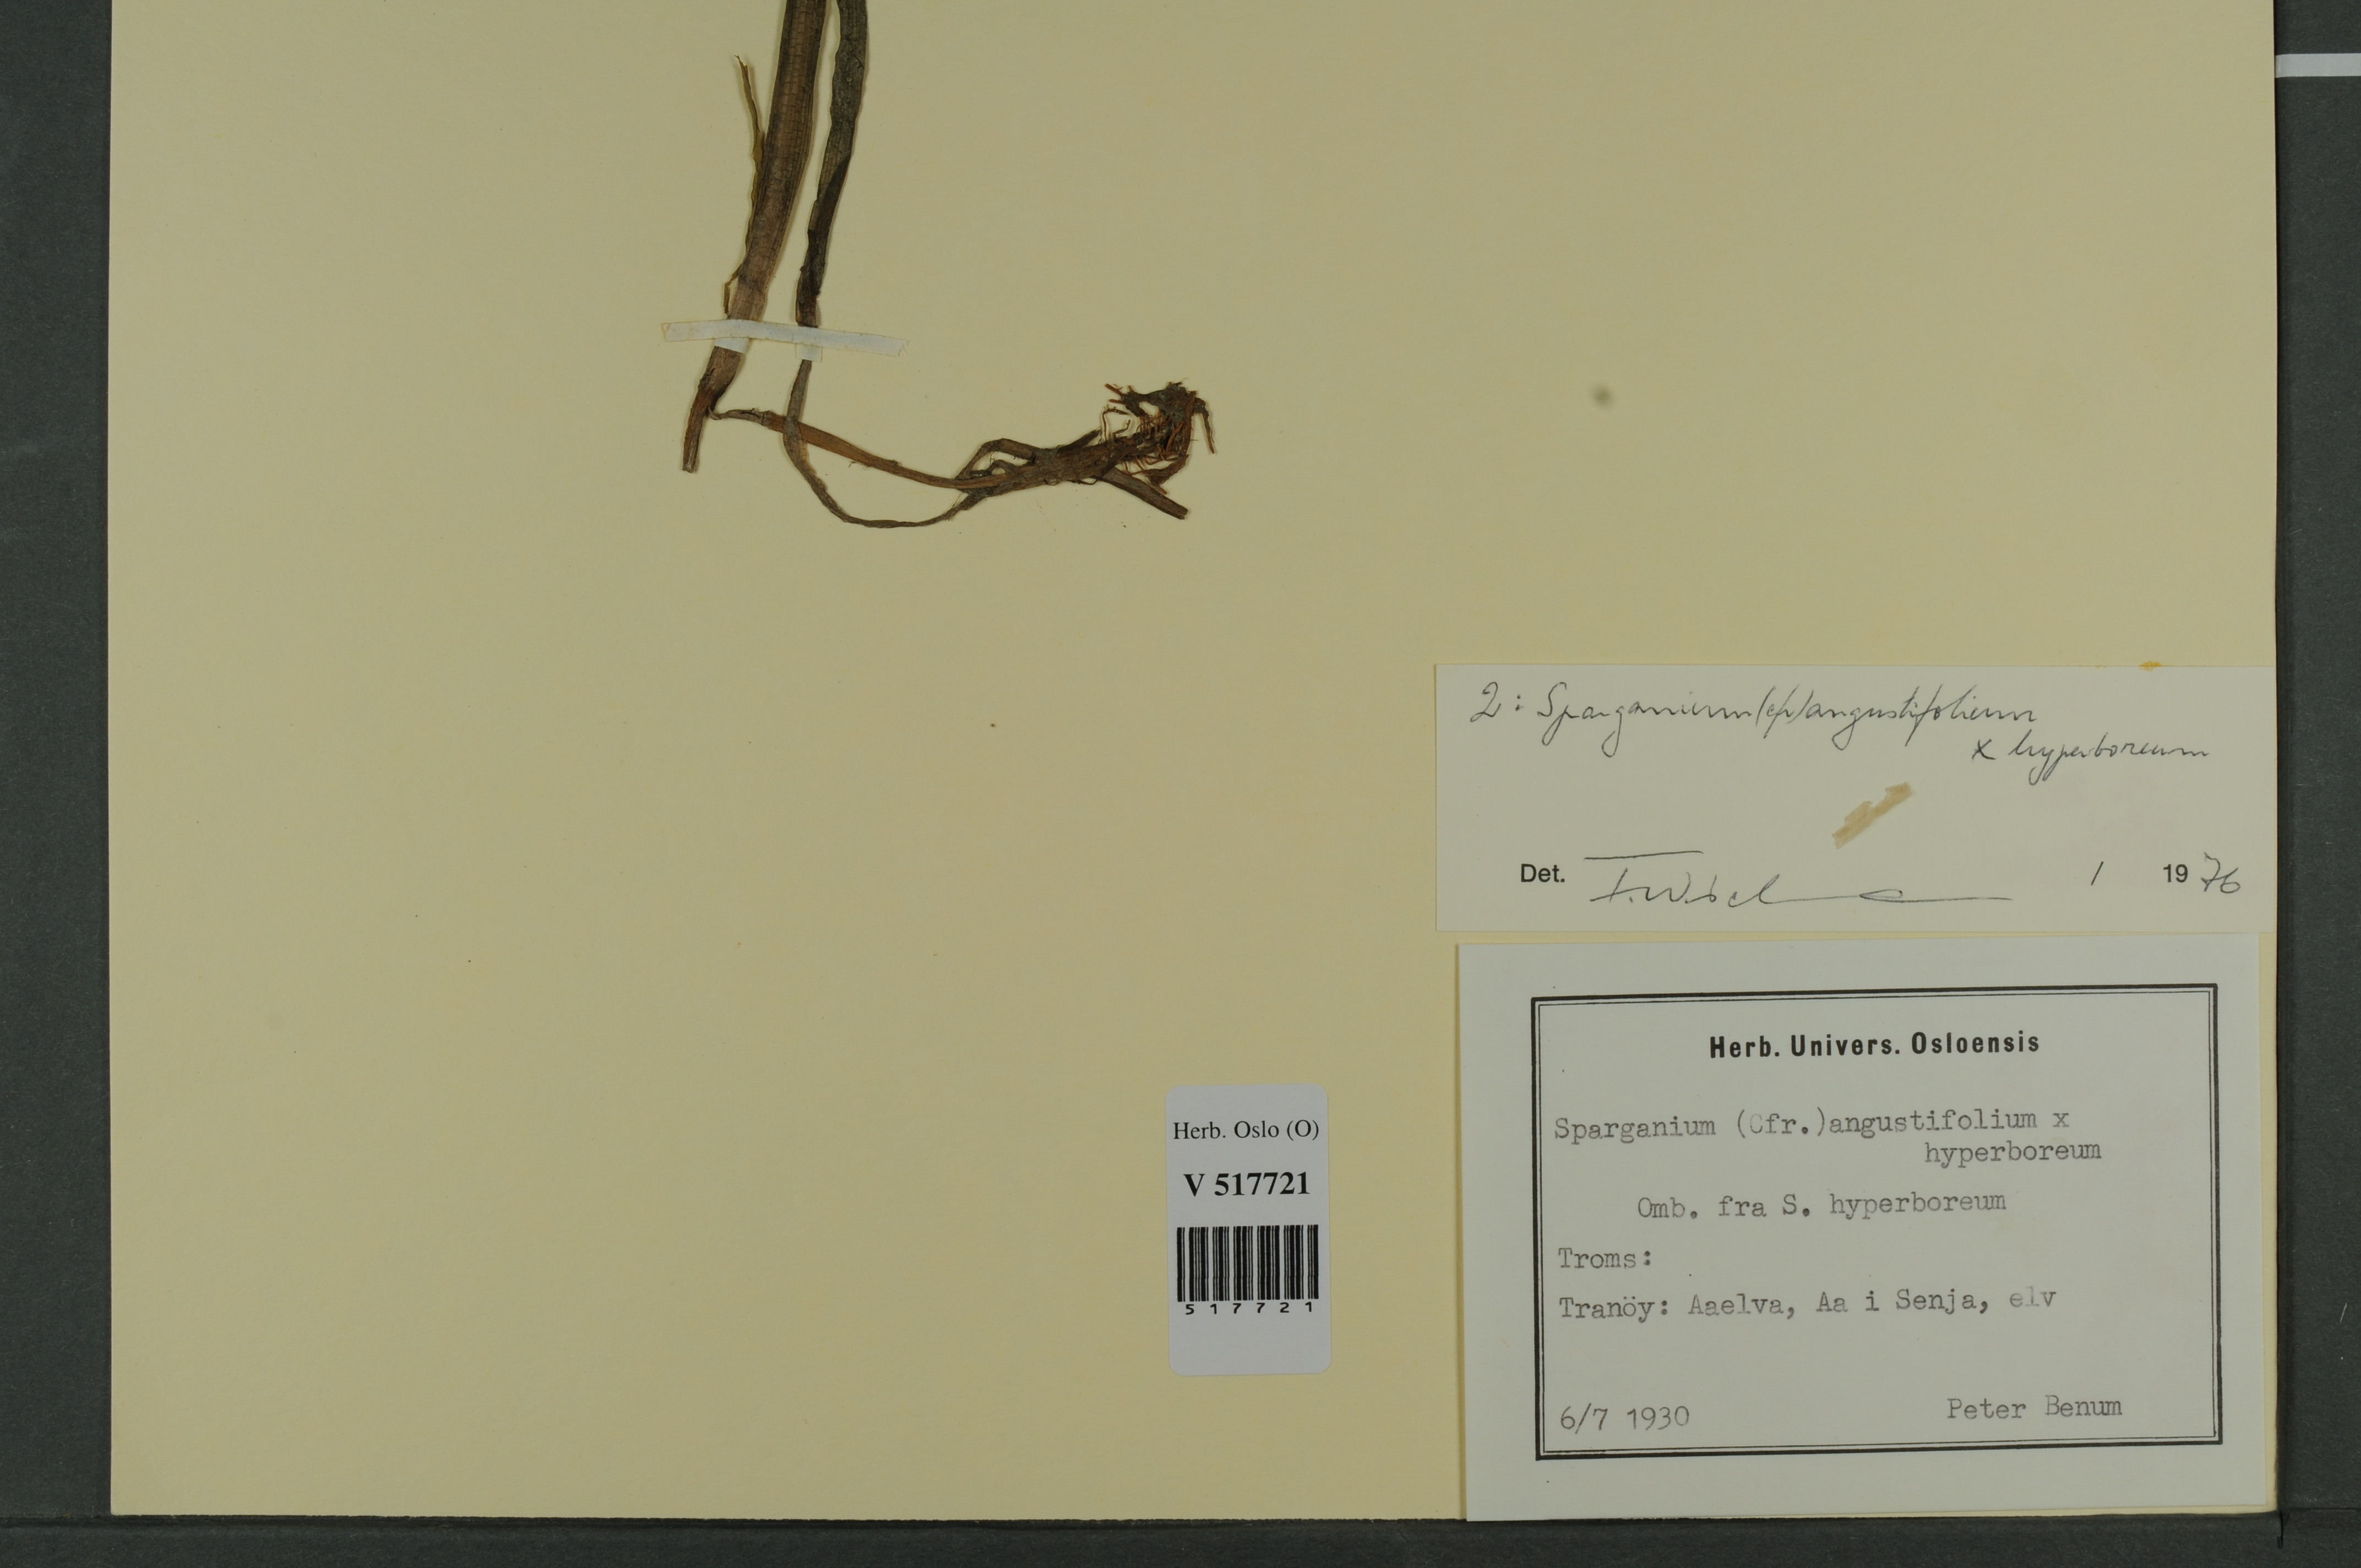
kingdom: Plantae
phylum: Tracheophyta
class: Liliopsida
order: Poales
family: Typhaceae
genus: Sparganium
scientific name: Sparganium
